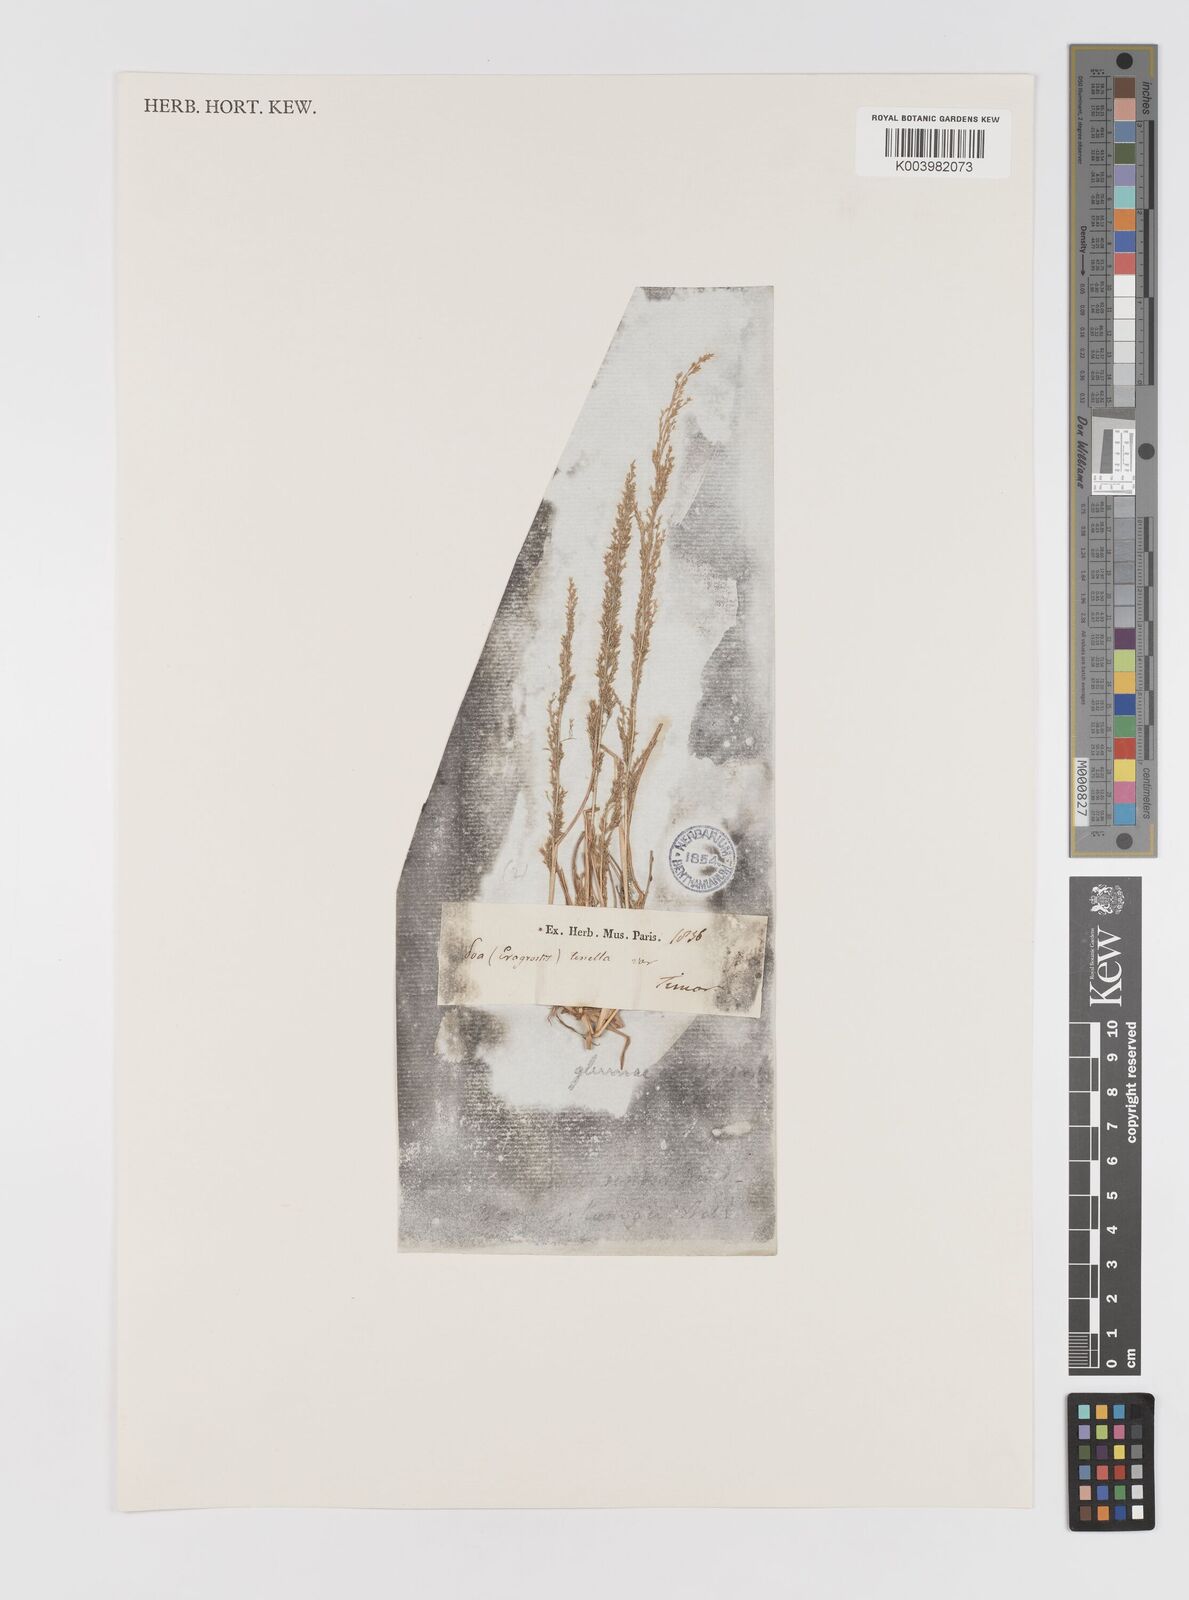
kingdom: Plantae
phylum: Tracheophyta
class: Liliopsida
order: Poales
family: Poaceae
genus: Eragrostis
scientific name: Eragrostis japonica
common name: Pond lovegrass
